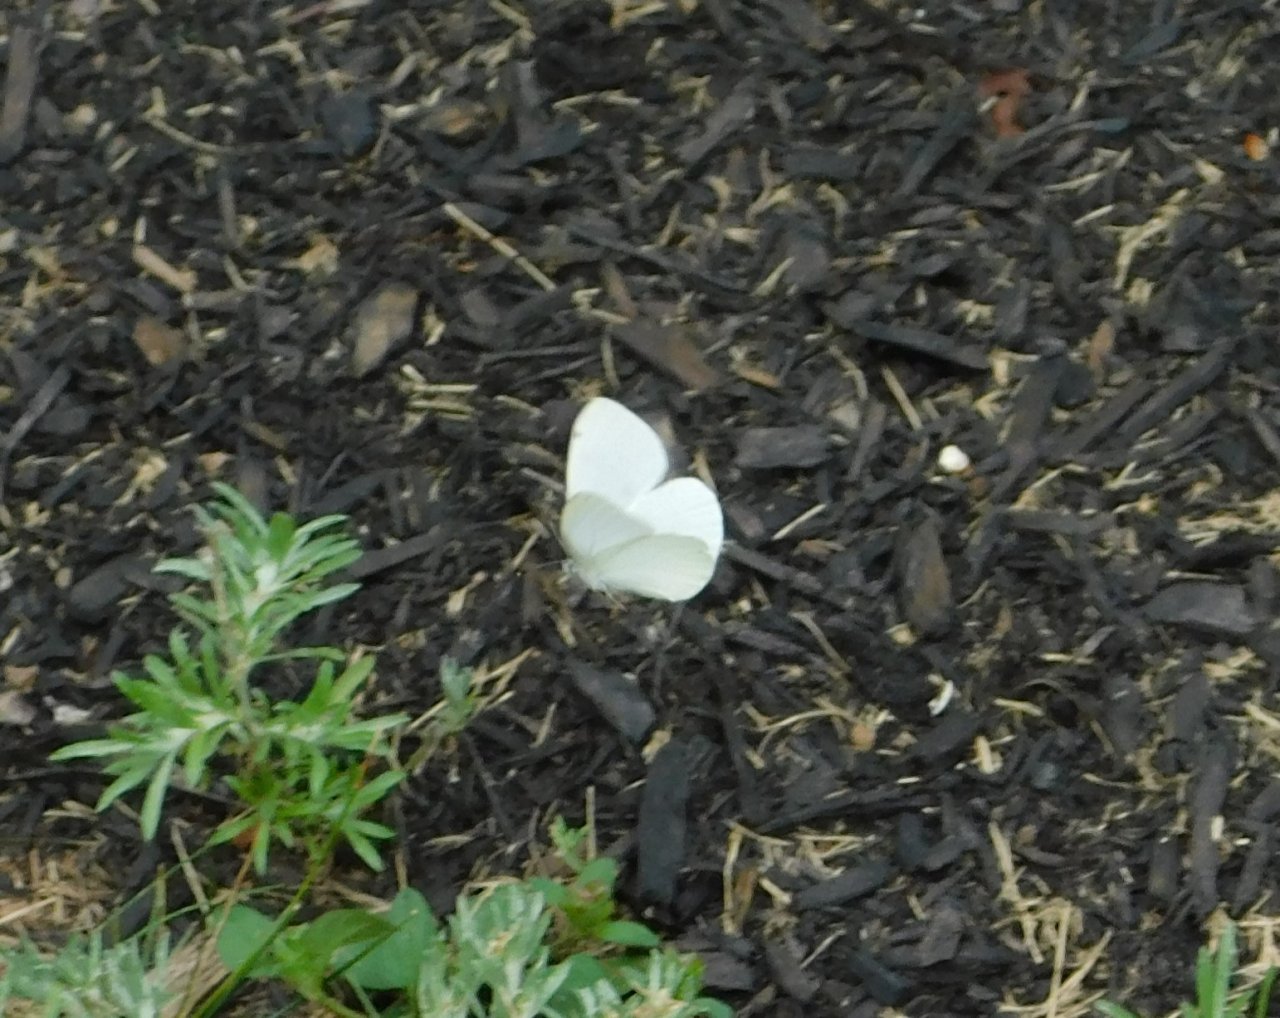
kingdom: Animalia
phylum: Arthropoda
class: Insecta
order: Lepidoptera
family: Pieridae
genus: Pieris
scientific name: Pieris oleracea
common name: Mustard White
